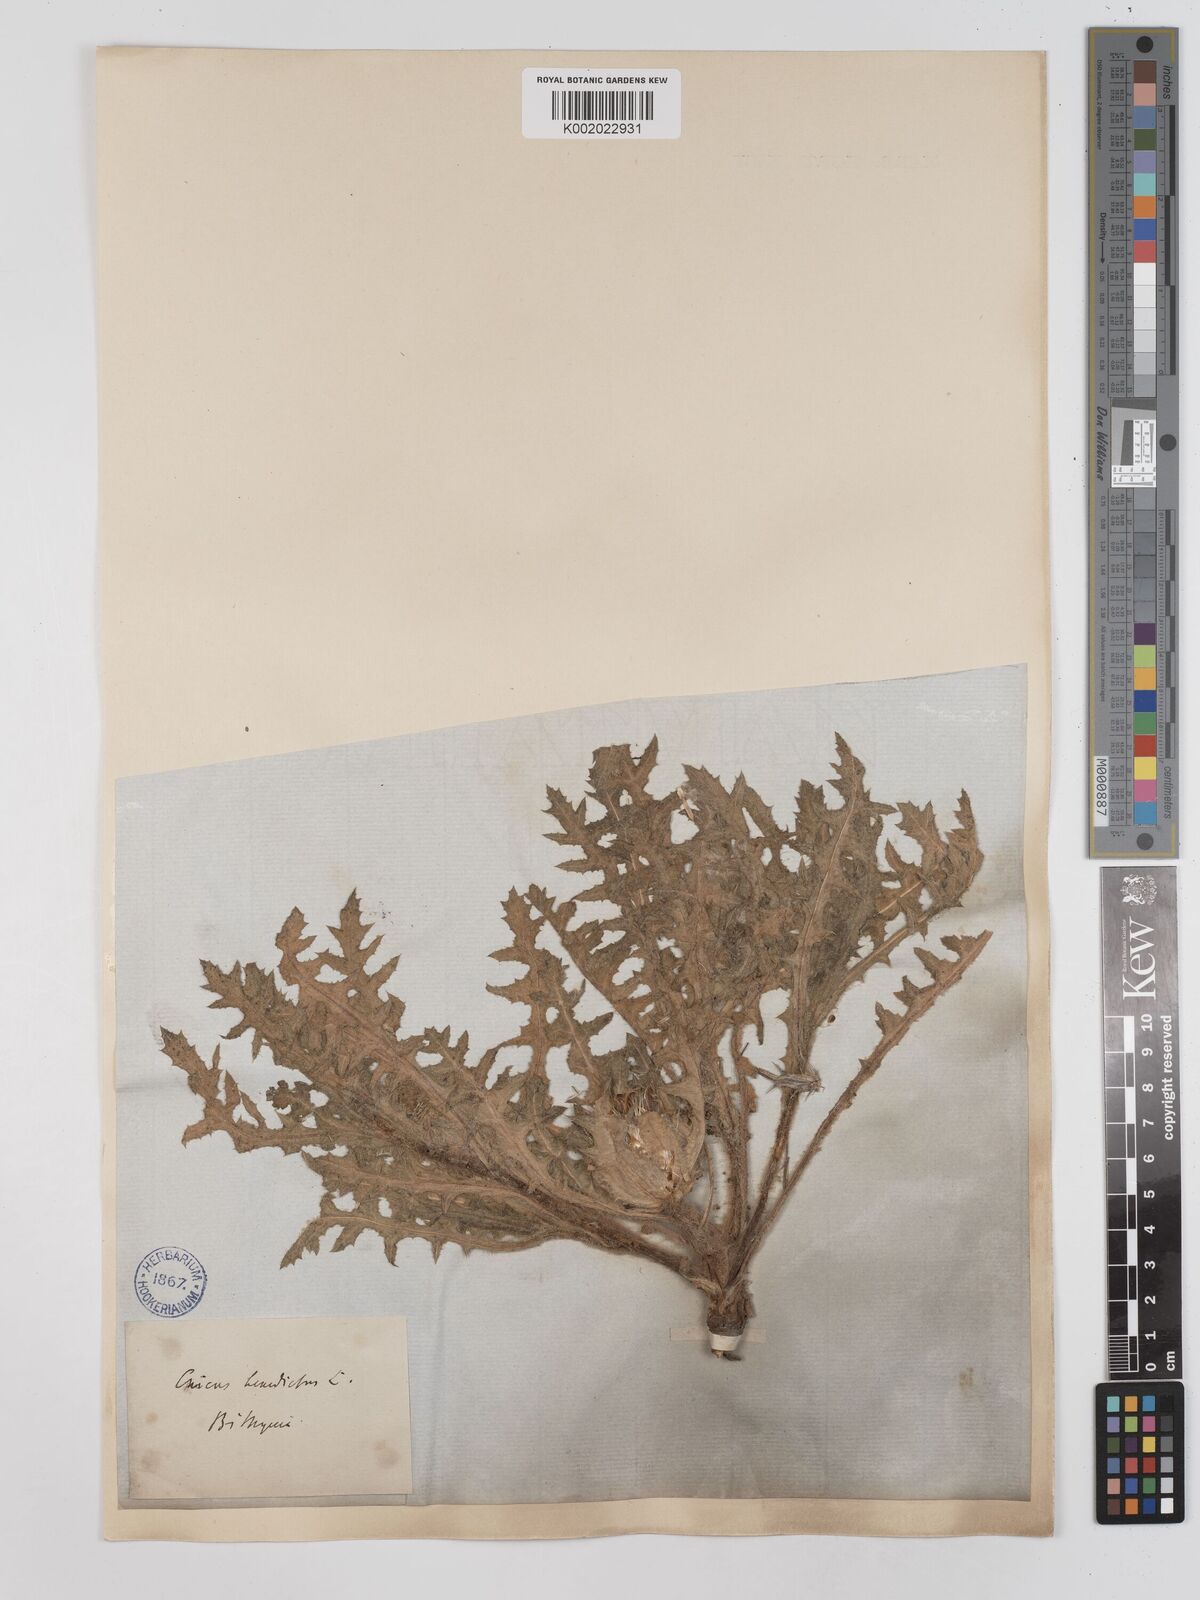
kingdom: Plantae
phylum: Tracheophyta
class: Magnoliopsida
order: Asterales
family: Asteraceae
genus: Centaurea
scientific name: Centaurea benedicta
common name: Blessed thistle
